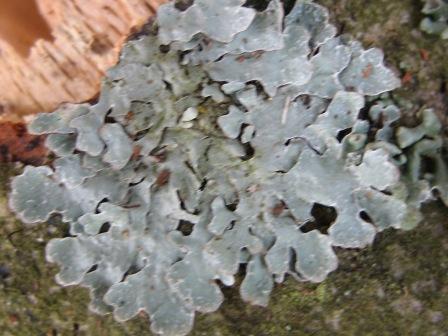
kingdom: Fungi
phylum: Ascomycota
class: Lecanoromycetes
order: Lecanorales
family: Parmeliaceae
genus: Parmelia
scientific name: Parmelia sulcata
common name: rynket skållav
